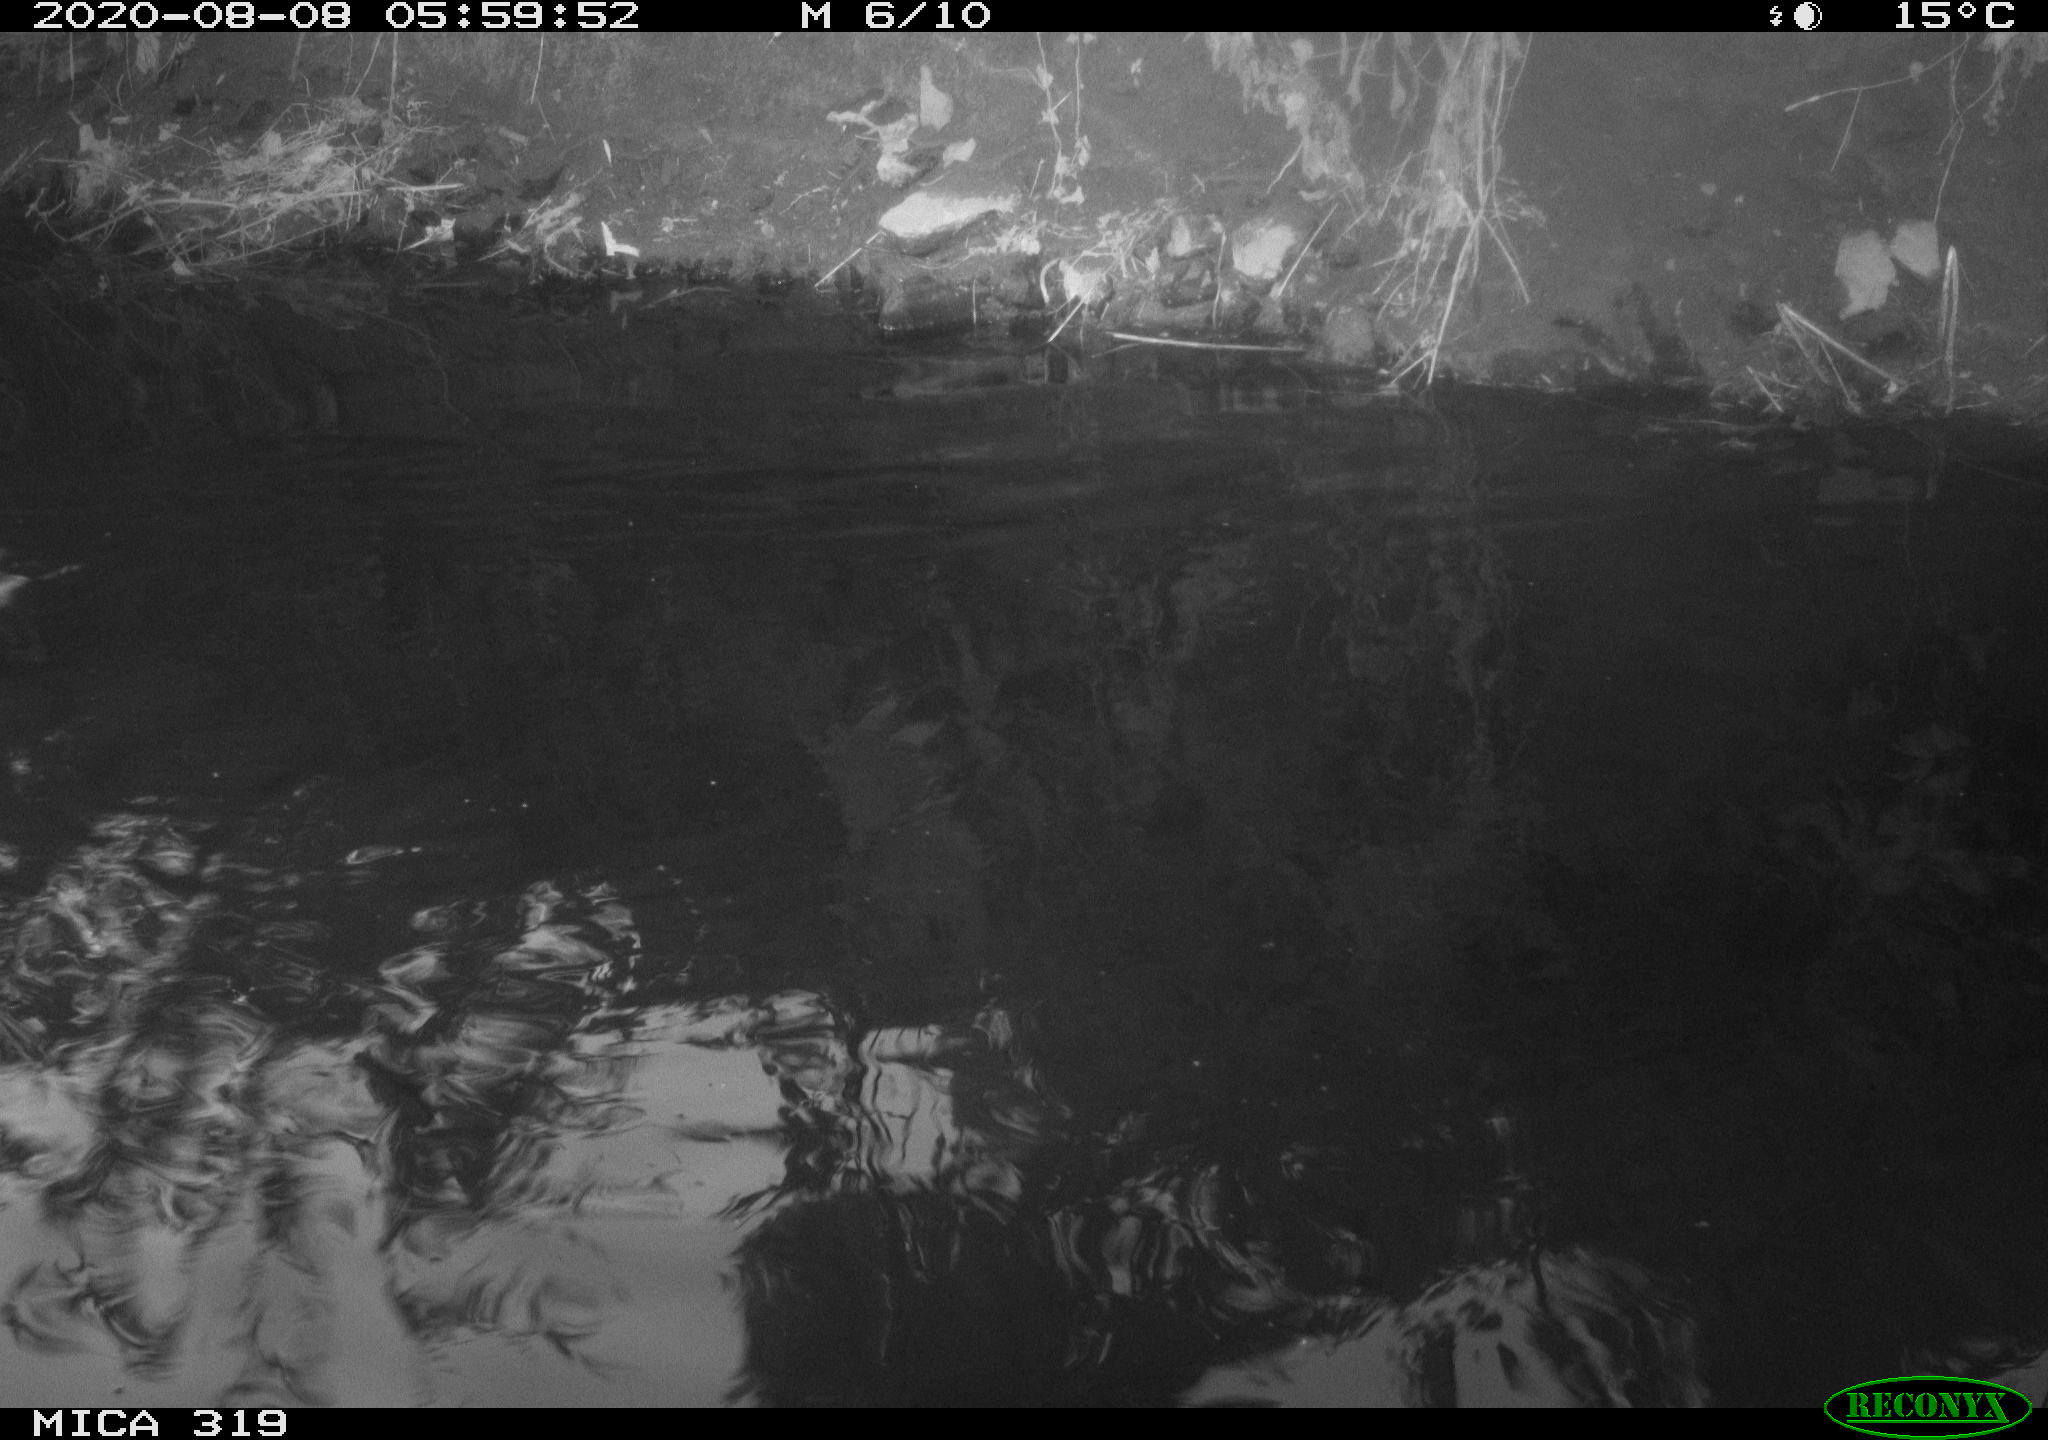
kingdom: Animalia
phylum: Chordata
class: Aves
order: Anseriformes
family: Anatidae
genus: Anas
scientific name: Anas platyrhynchos
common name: Mallard
